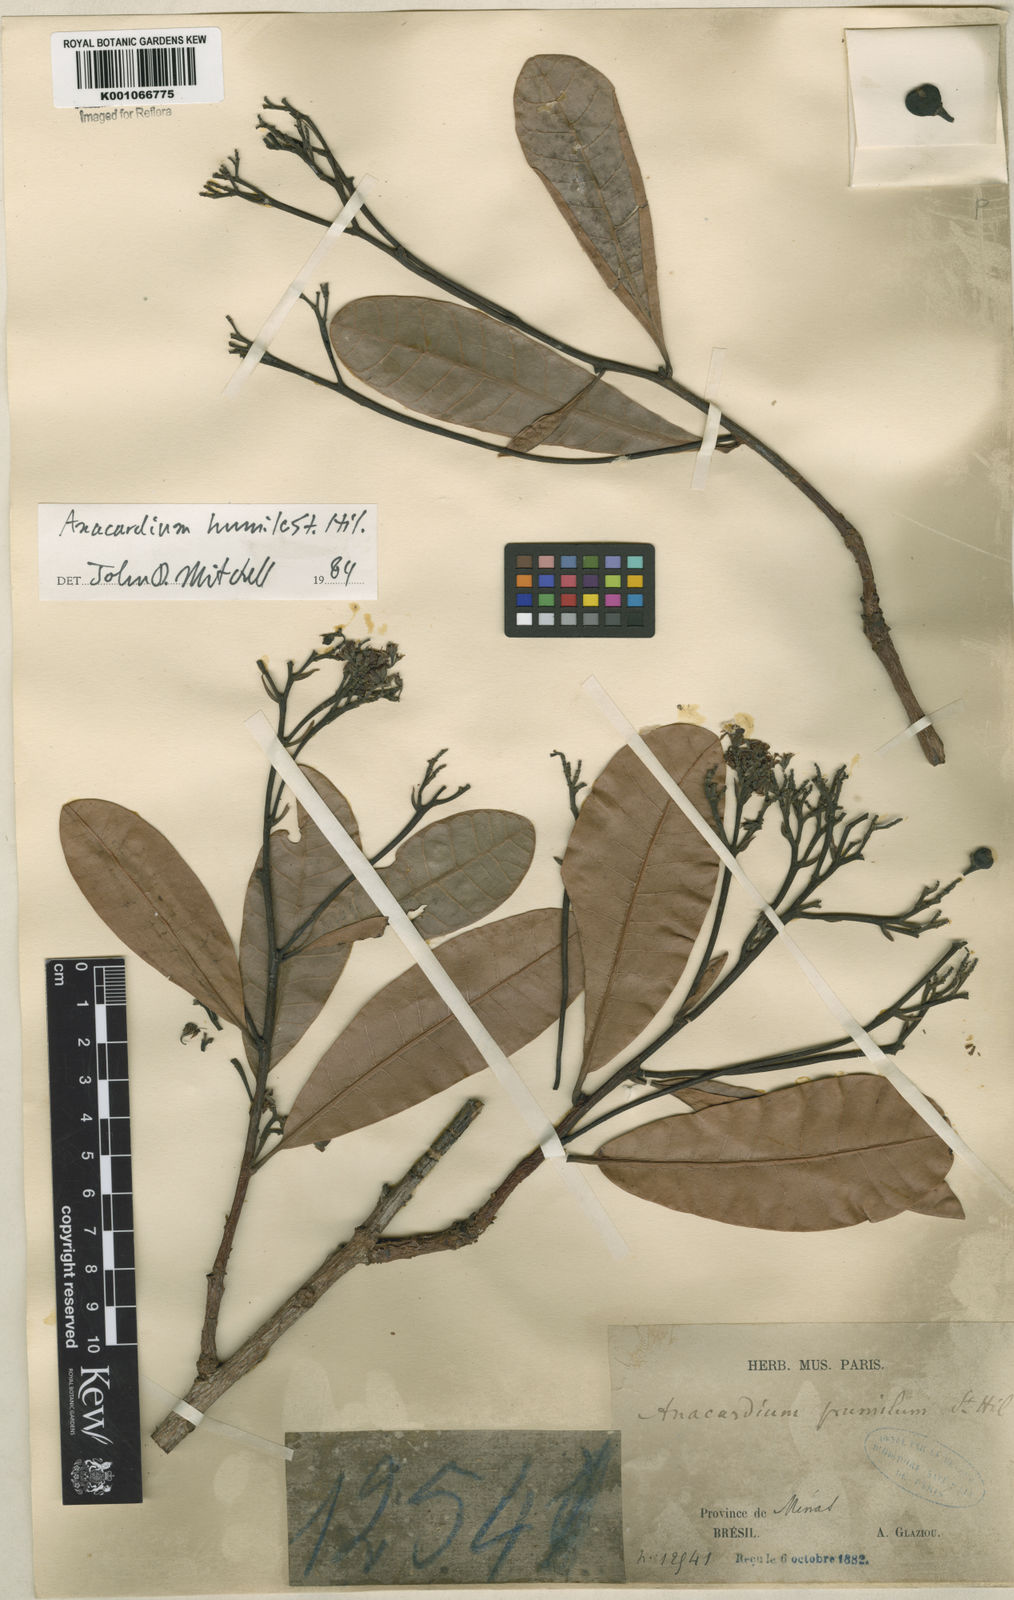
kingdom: Plantae
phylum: Tracheophyta
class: Magnoliopsida
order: Sapindales
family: Anacardiaceae
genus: Anacardium
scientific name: Anacardium humile
